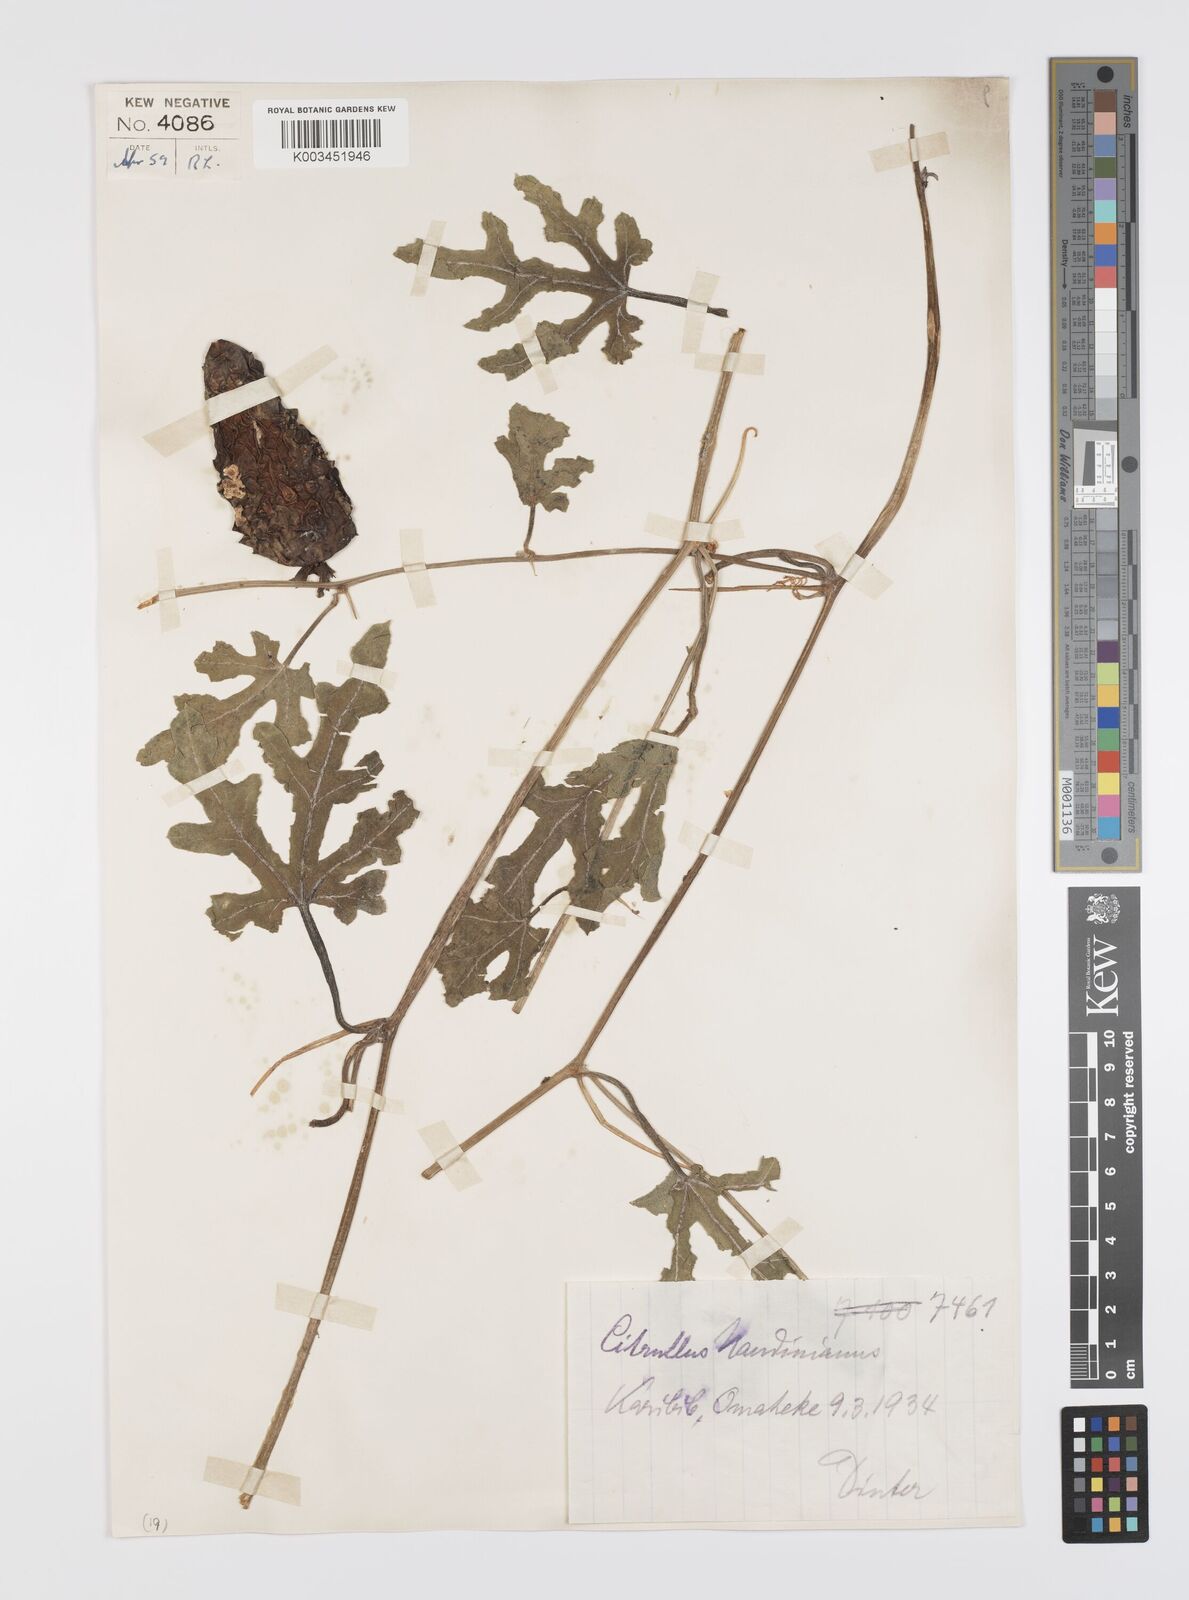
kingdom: Plantae
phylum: Tracheophyta
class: Magnoliopsida
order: Cucurbitales
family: Cucurbitaceae
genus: Citrullus
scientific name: Citrullus naudinianus
